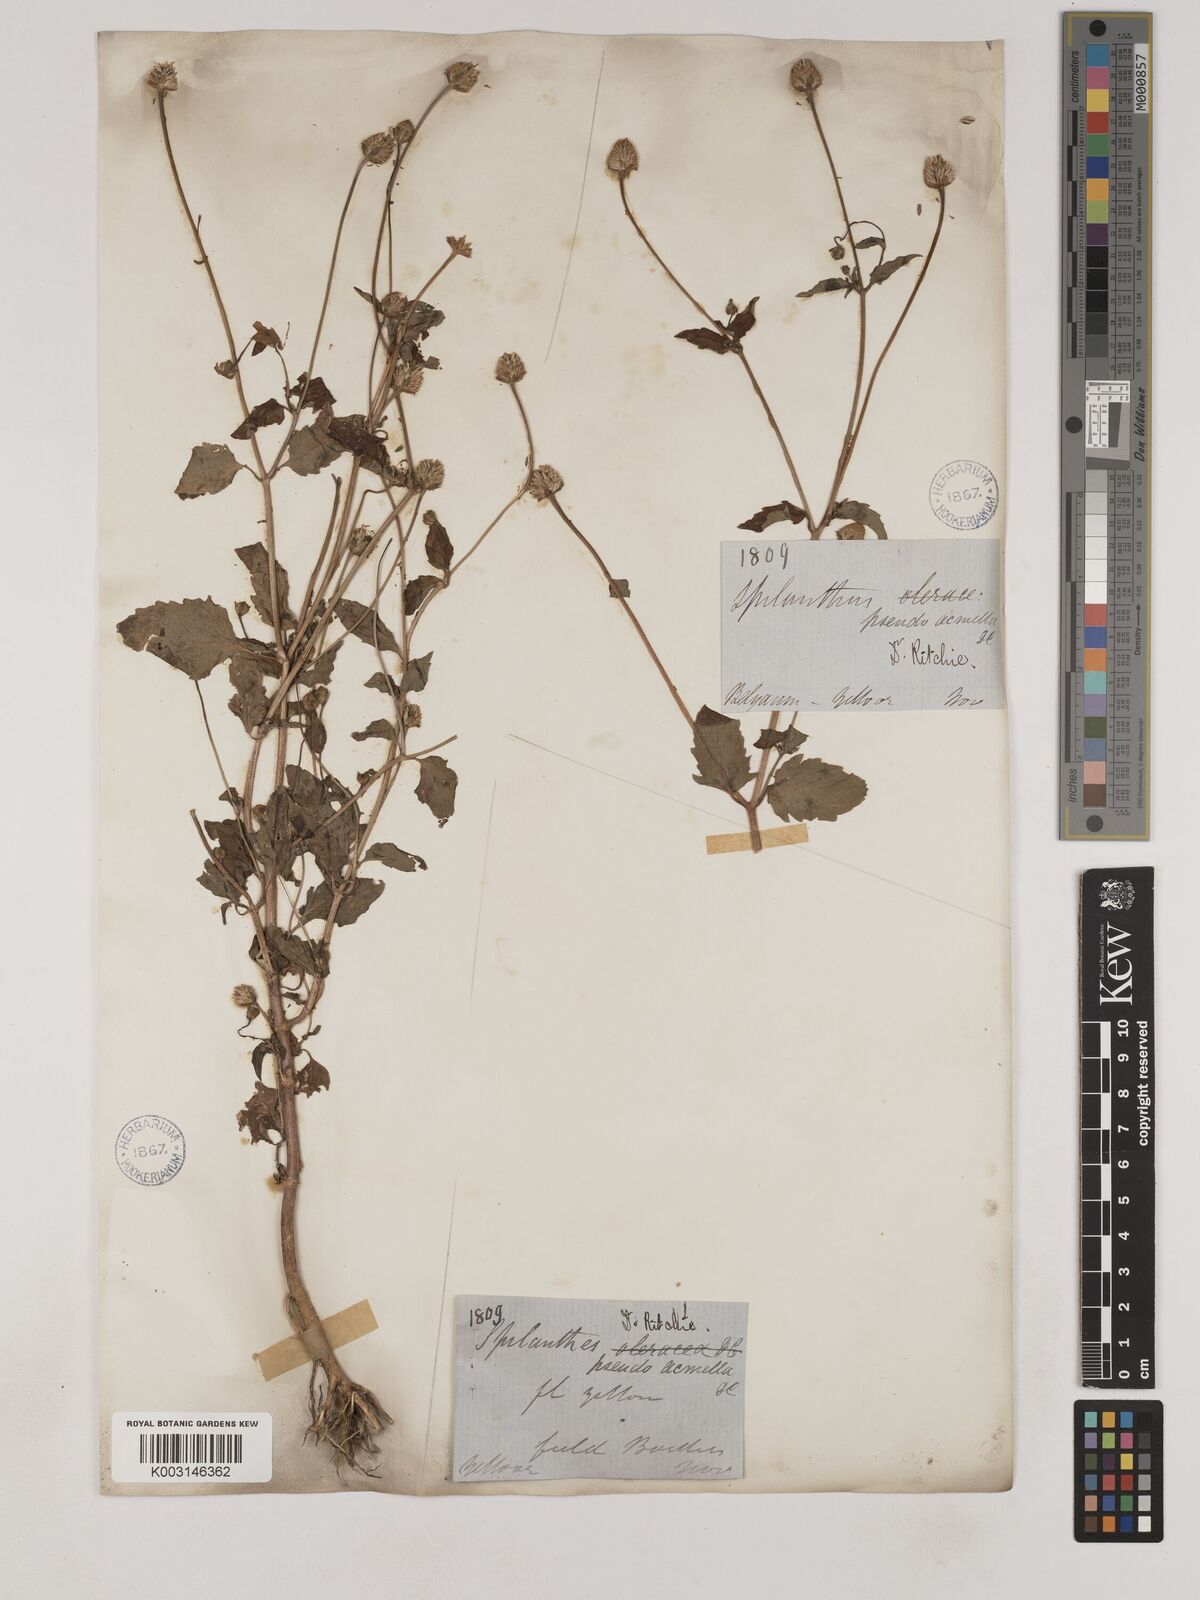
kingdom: Plantae
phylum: Tracheophyta
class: Magnoliopsida
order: Asterales
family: Asteraceae
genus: Acmella
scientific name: Acmella paniculata
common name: Panicled spot flower
